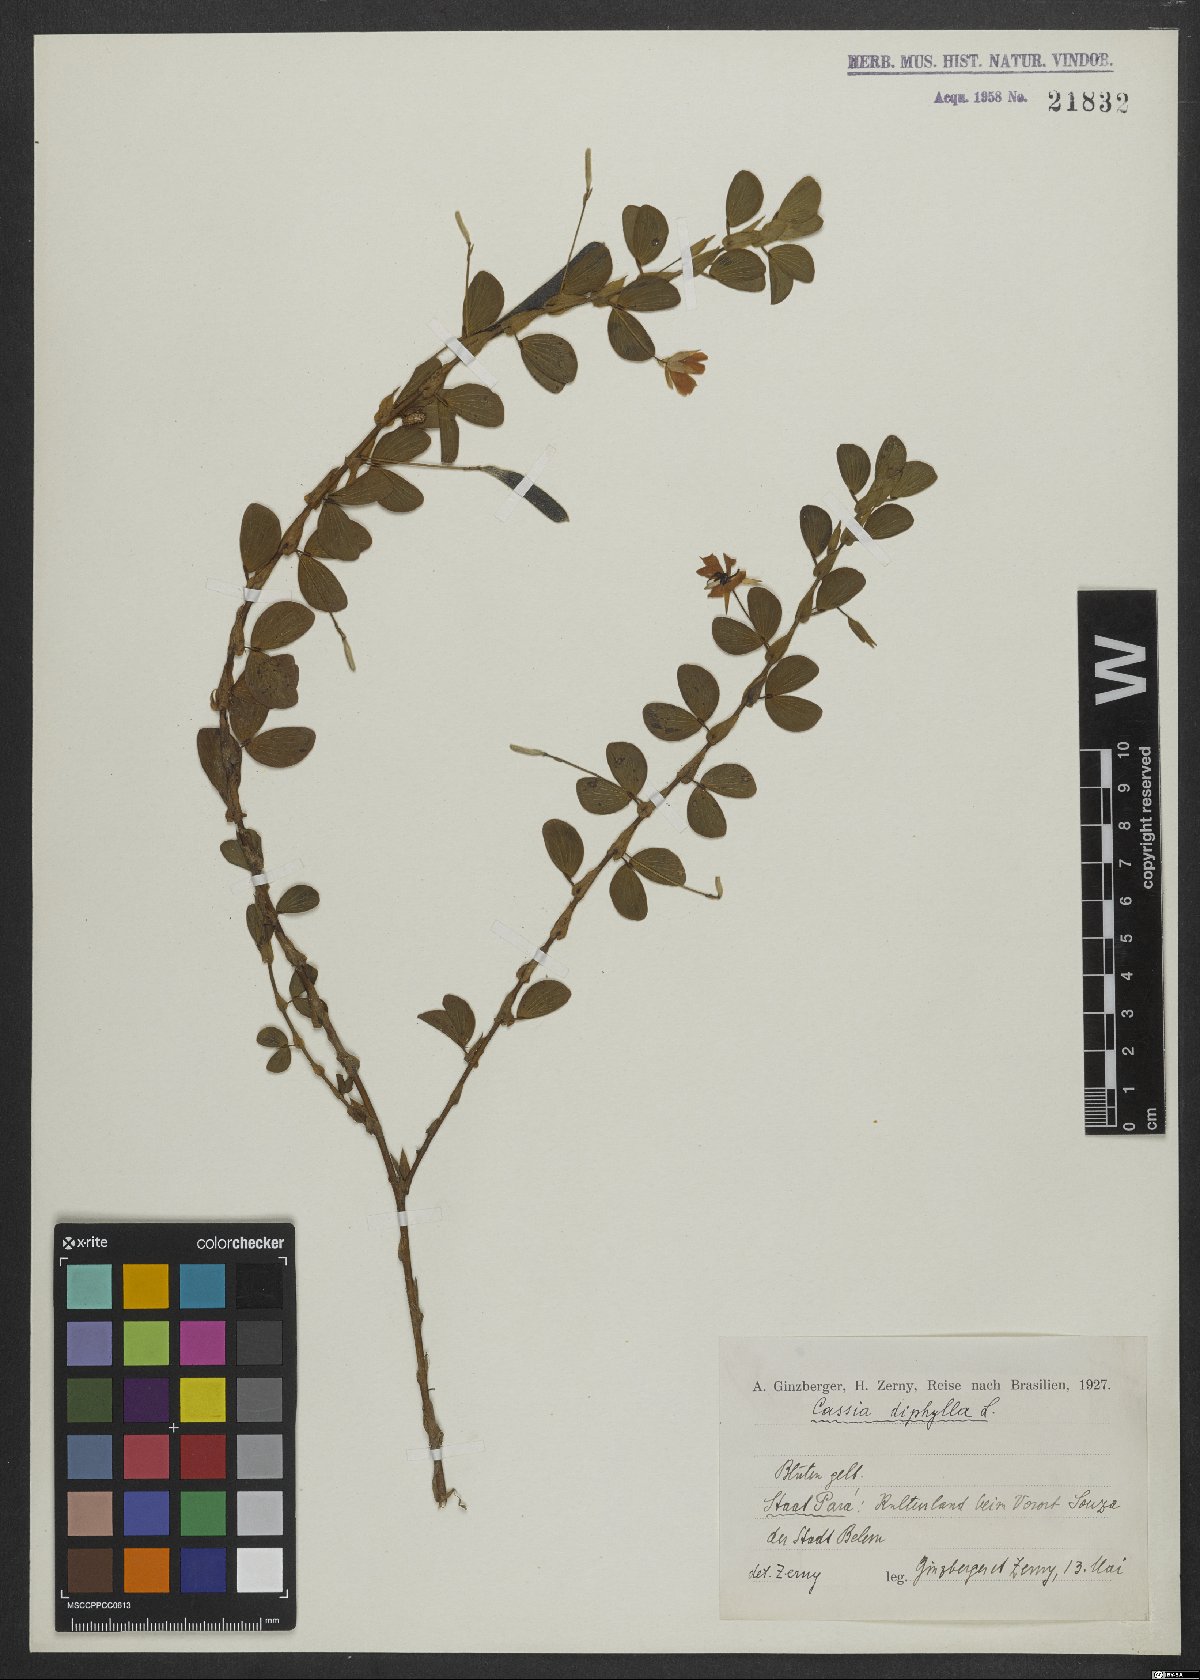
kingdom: Plantae
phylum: Tracheophyta
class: Magnoliopsida
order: Fabales
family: Fabaceae
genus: Chamaecrista
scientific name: Chamaecrista diphylla
